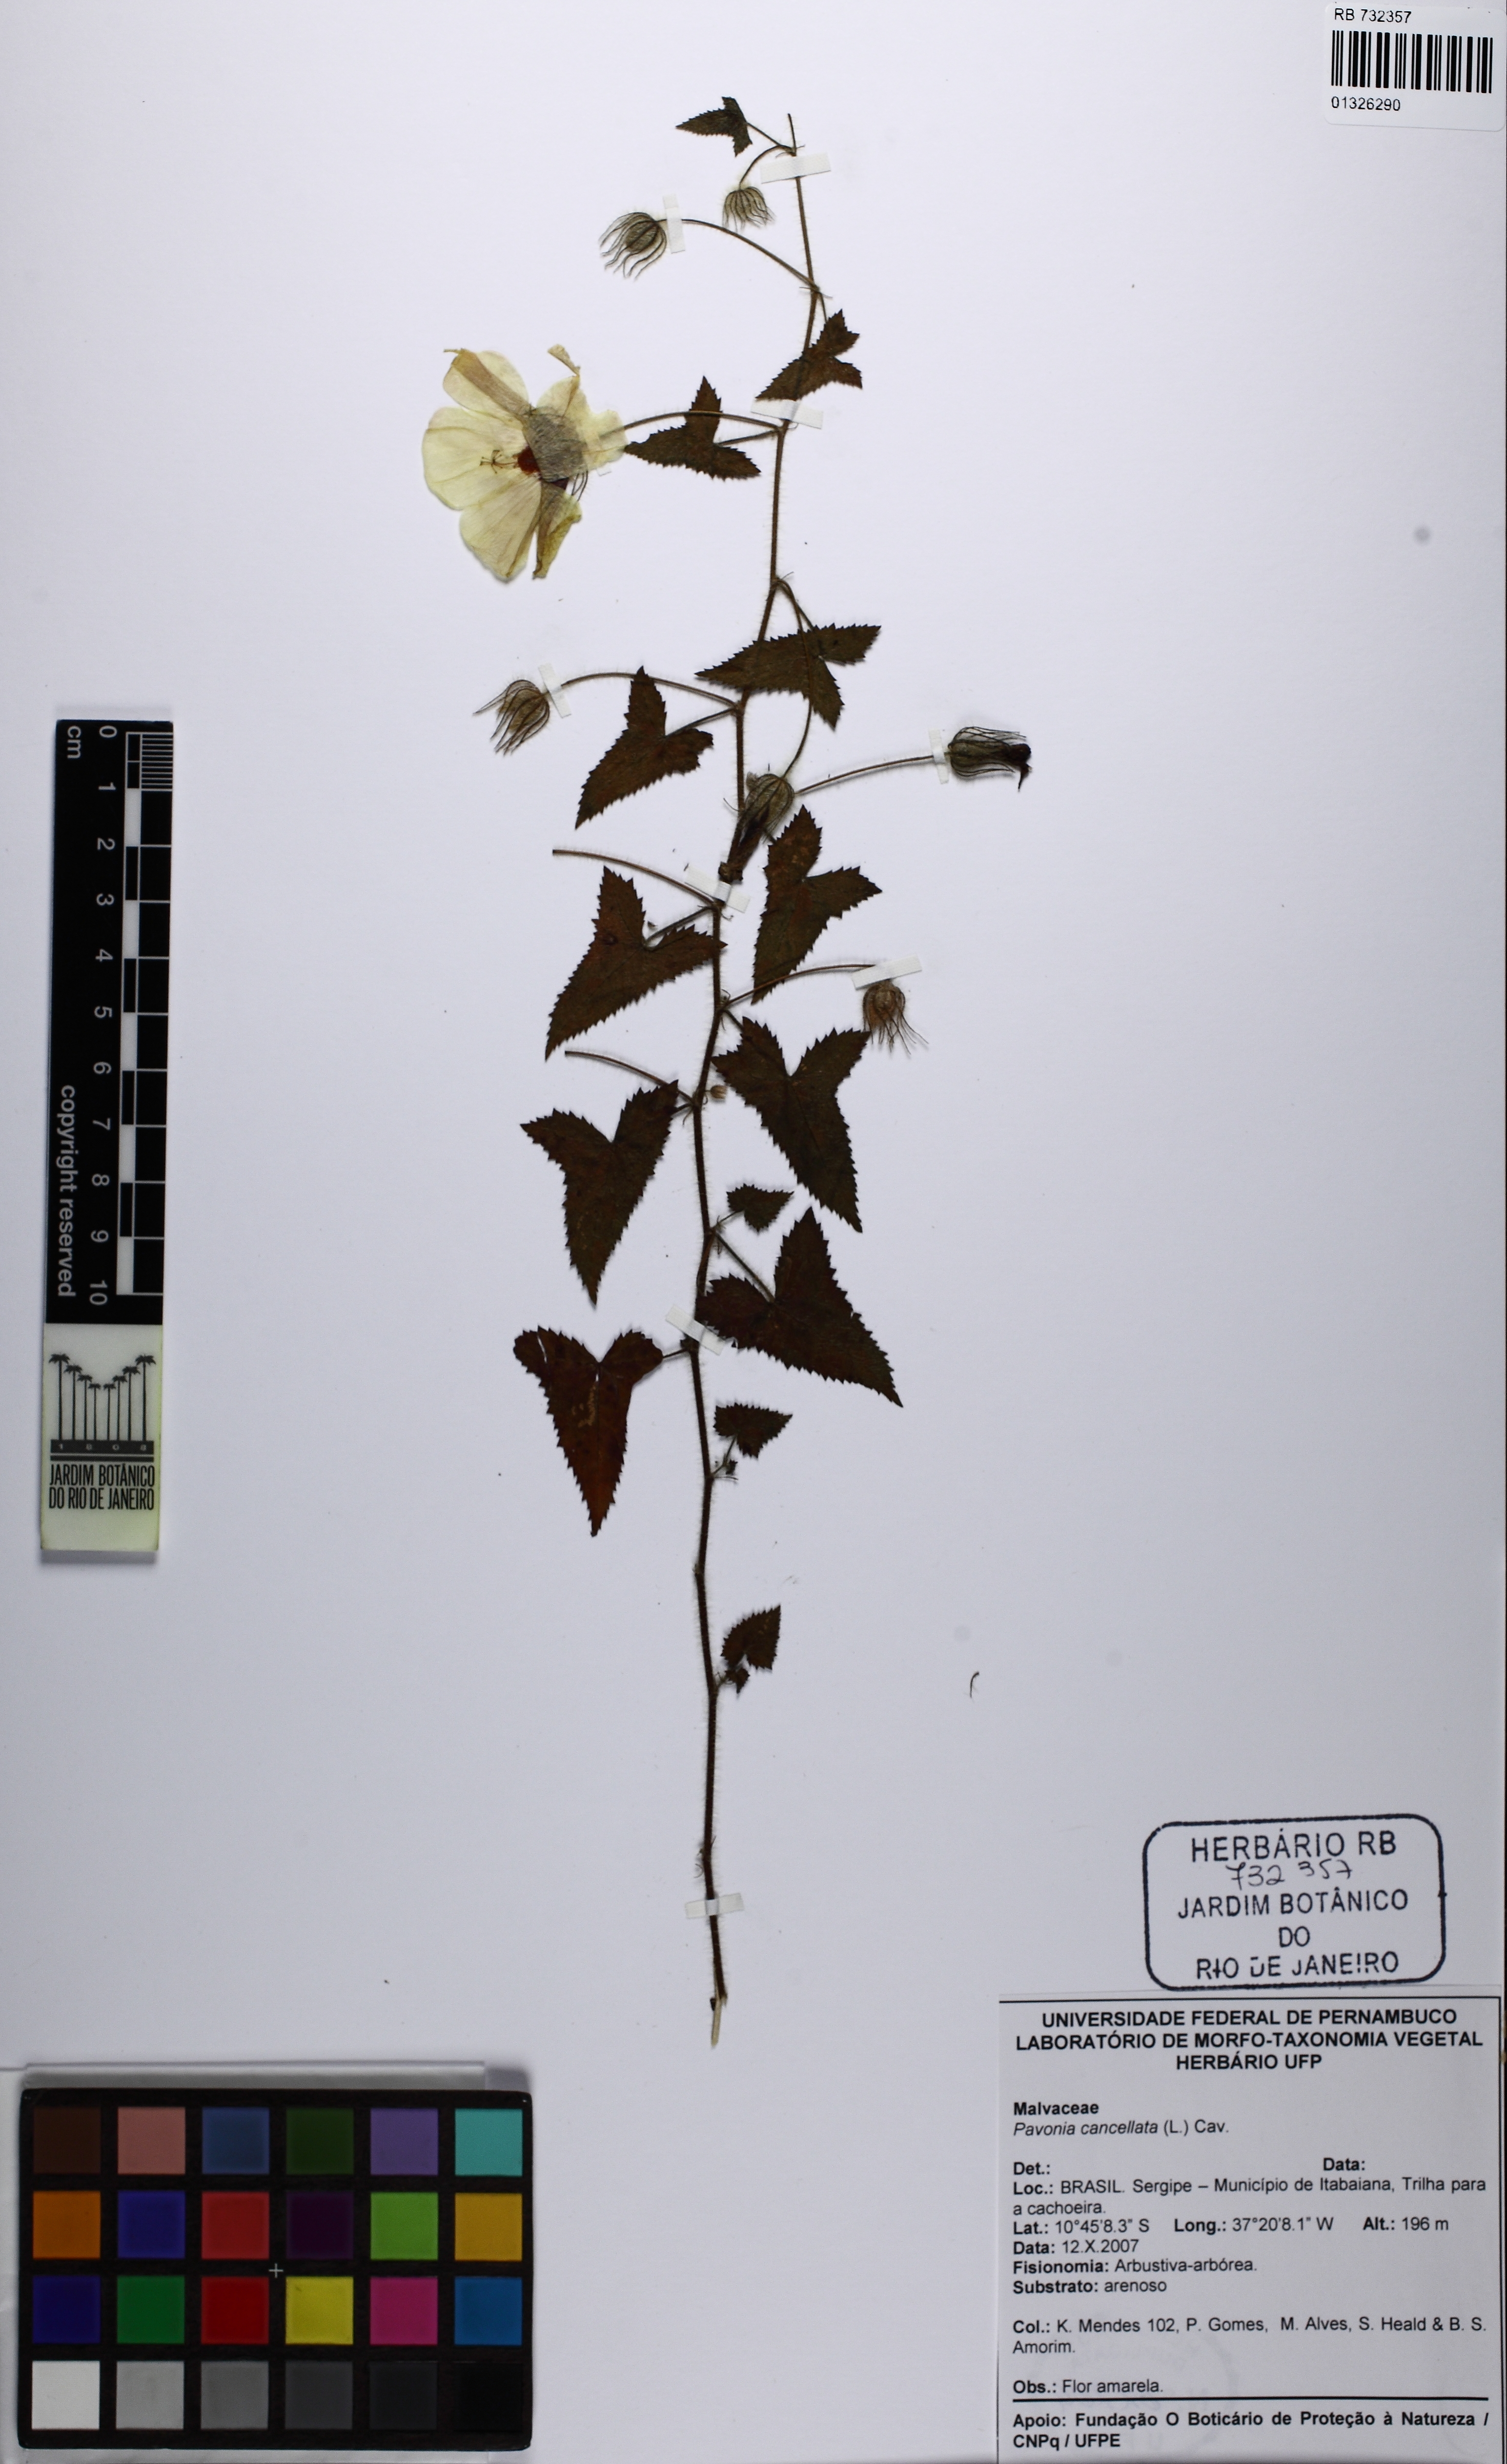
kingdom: Plantae
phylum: Tracheophyta
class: Magnoliopsida
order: Malvales
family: Malvaceae
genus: Pavonia
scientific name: Pavonia cancellata
